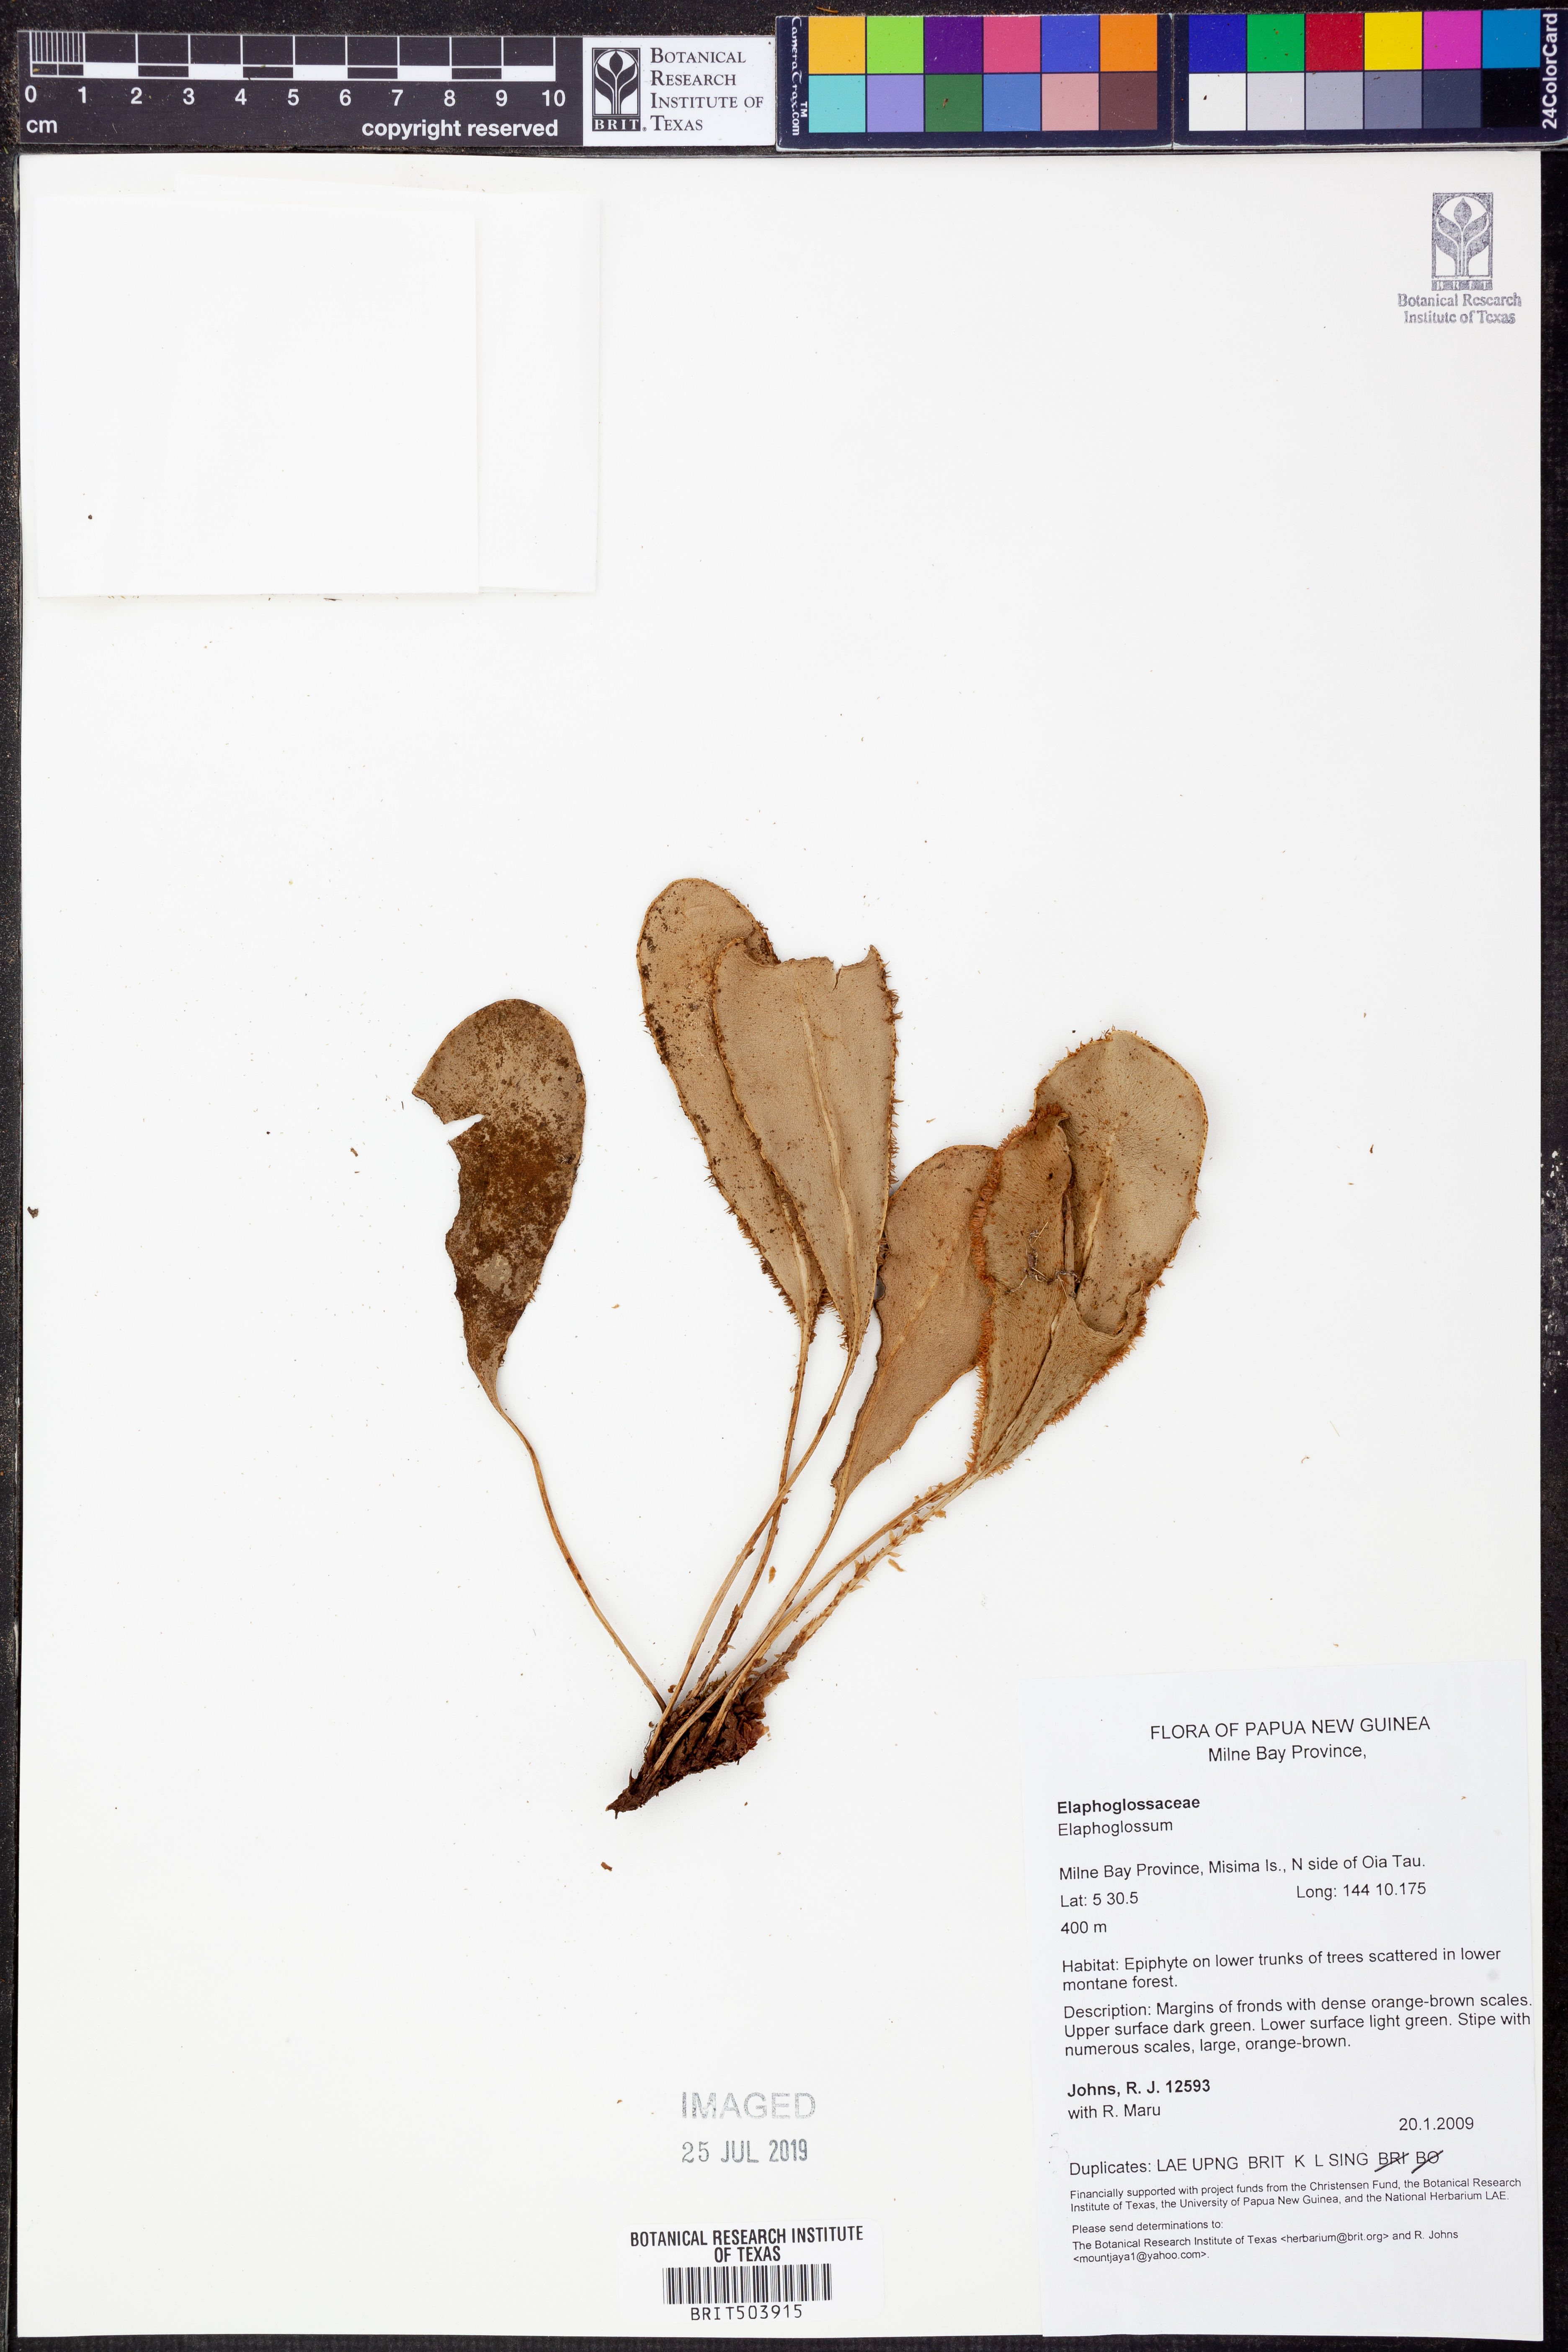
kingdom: Plantae
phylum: Tracheophyta
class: Polypodiopsida
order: Polypodiales
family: Dryopteridaceae
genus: Elaphoglossum
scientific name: Elaphoglossum
